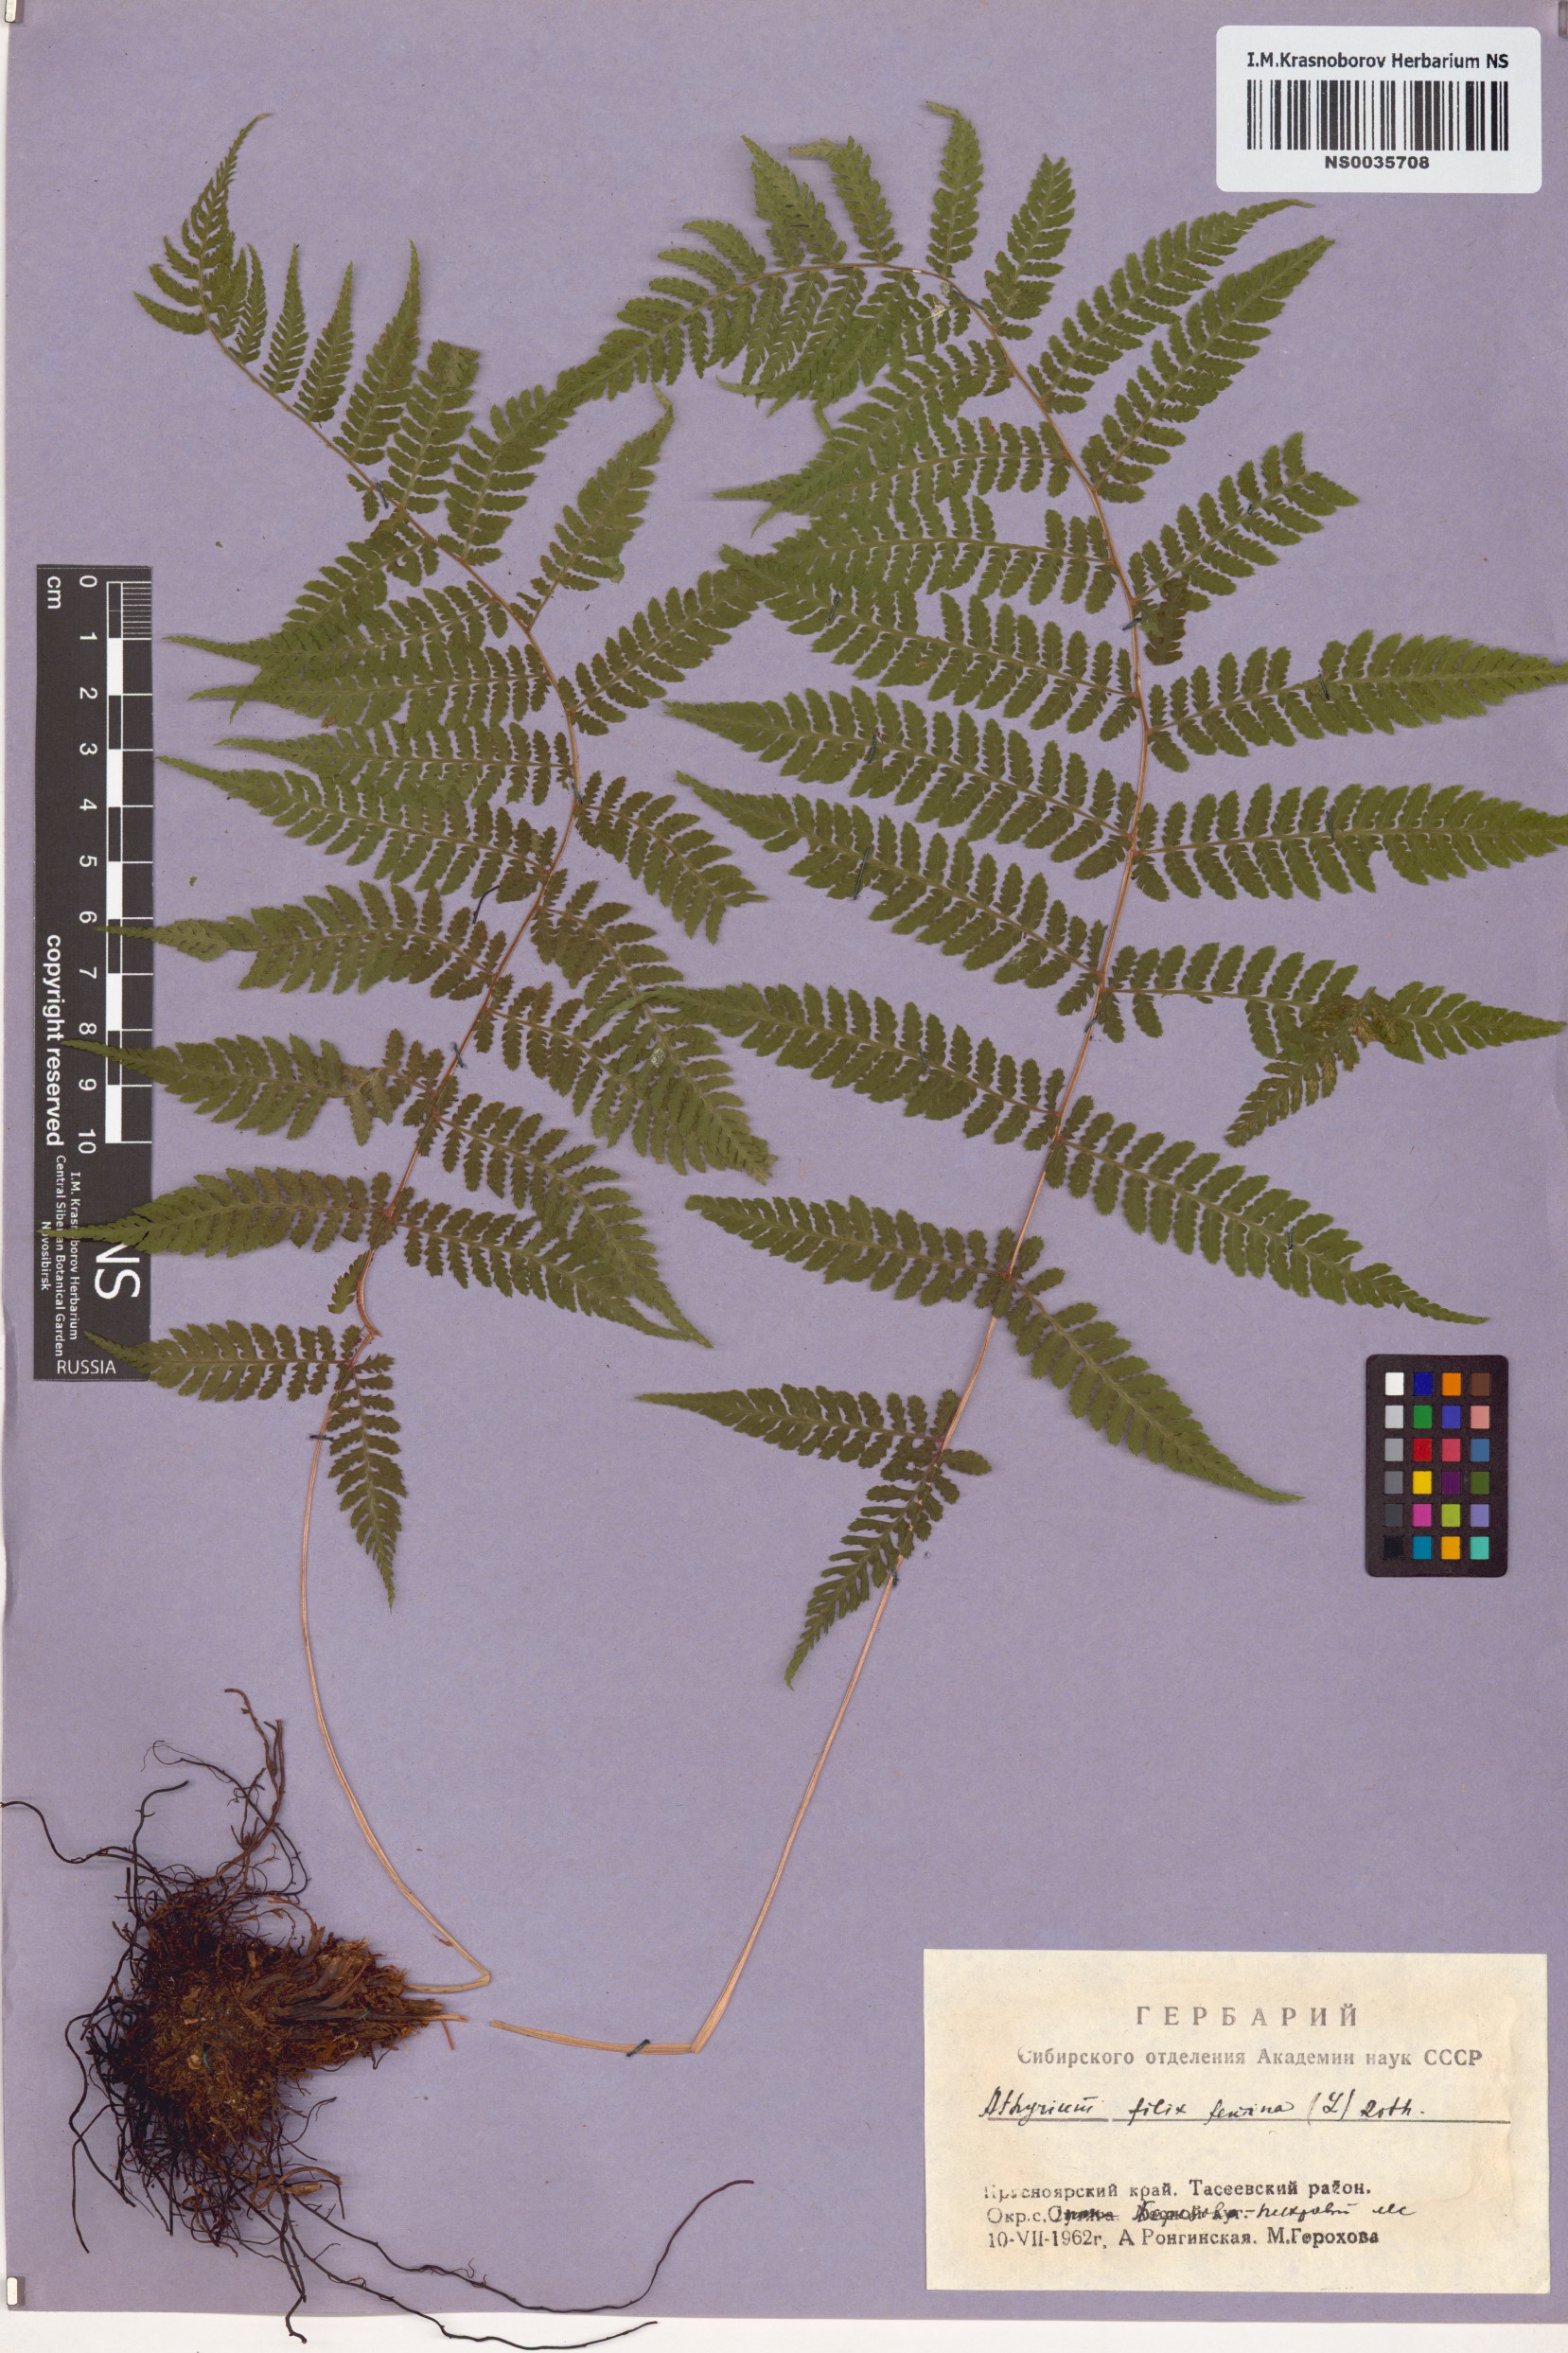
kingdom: Plantae
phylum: Tracheophyta
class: Polypodiopsida
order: Polypodiales
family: Athyriaceae
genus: Athyrium
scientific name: Athyrium filix-femina
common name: Lady fern
